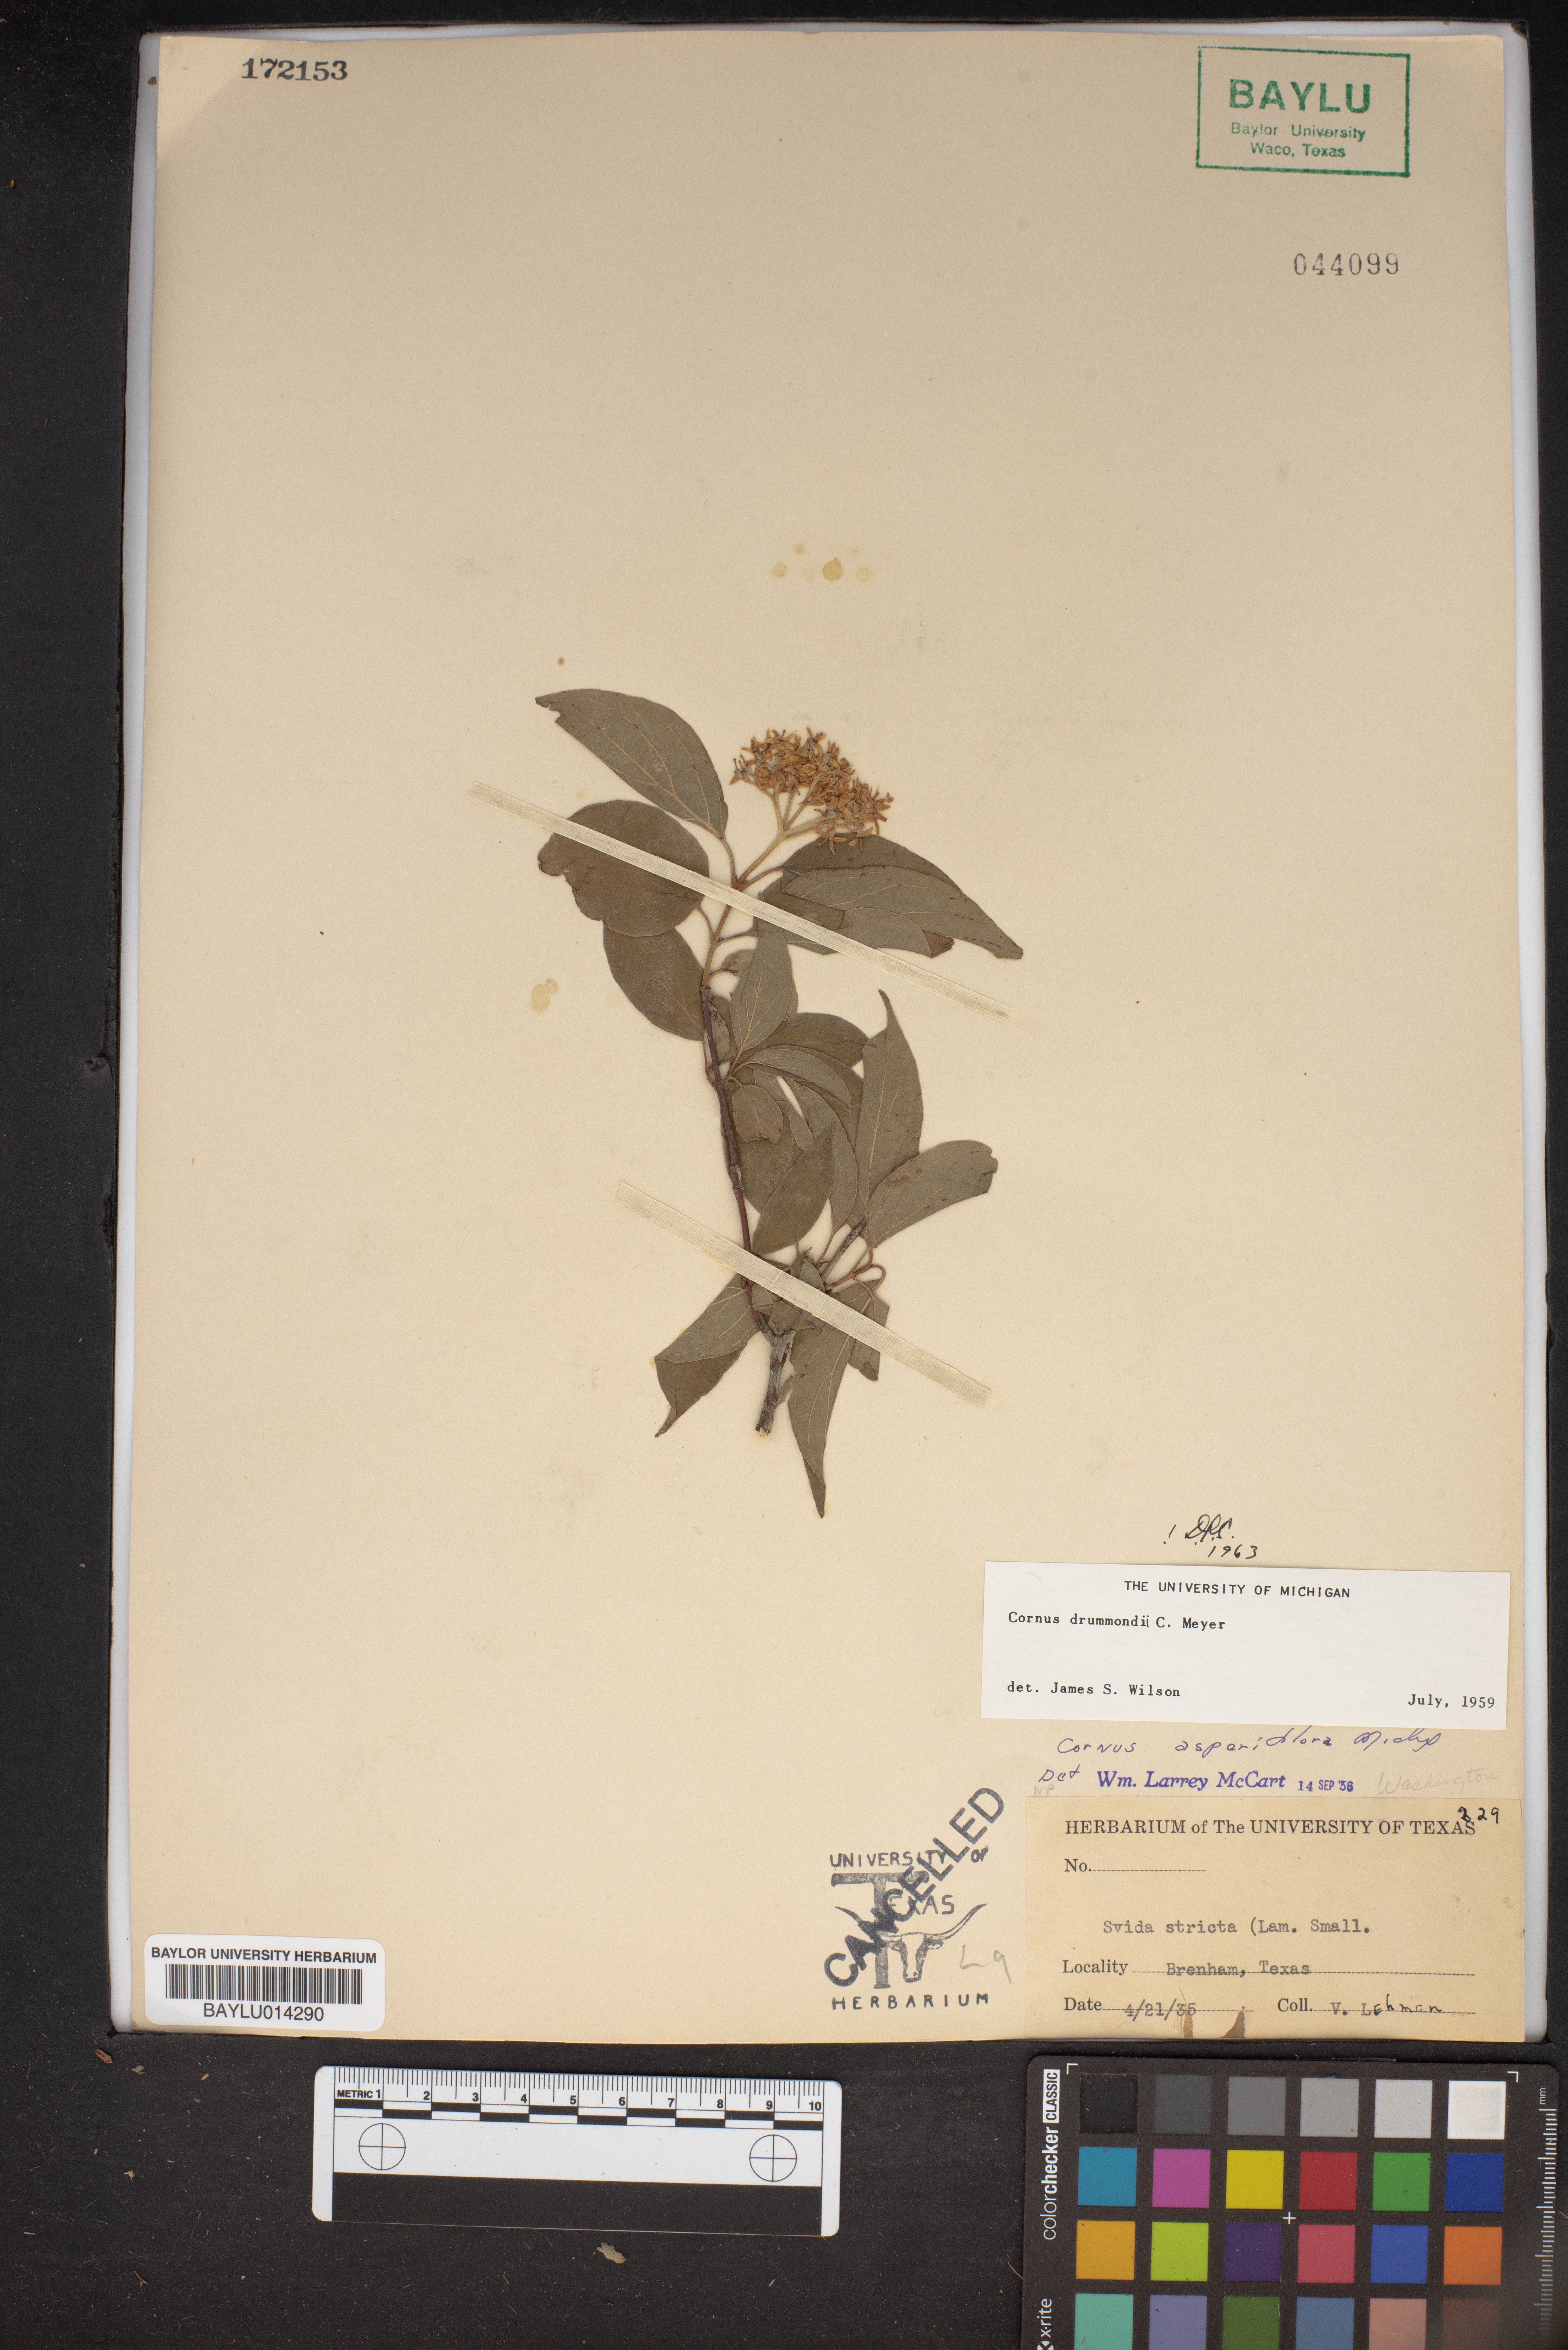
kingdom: Plantae
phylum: Tracheophyta
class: Magnoliopsida
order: Cornales
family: Cornaceae
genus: Cornus
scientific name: Cornus drummondii
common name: Rough-leaf dogwood
